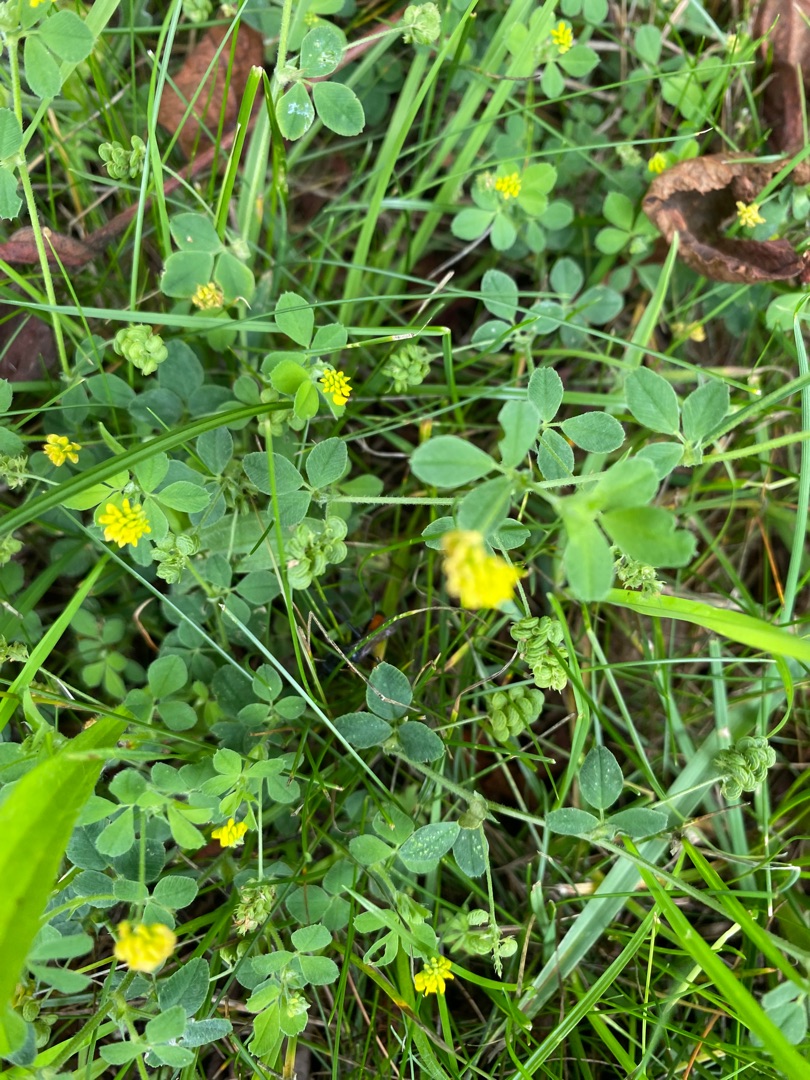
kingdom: Plantae
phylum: Tracheophyta
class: Magnoliopsida
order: Fabales
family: Fabaceae
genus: Medicago
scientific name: Medicago lupulina
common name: Humle-sneglebælg
